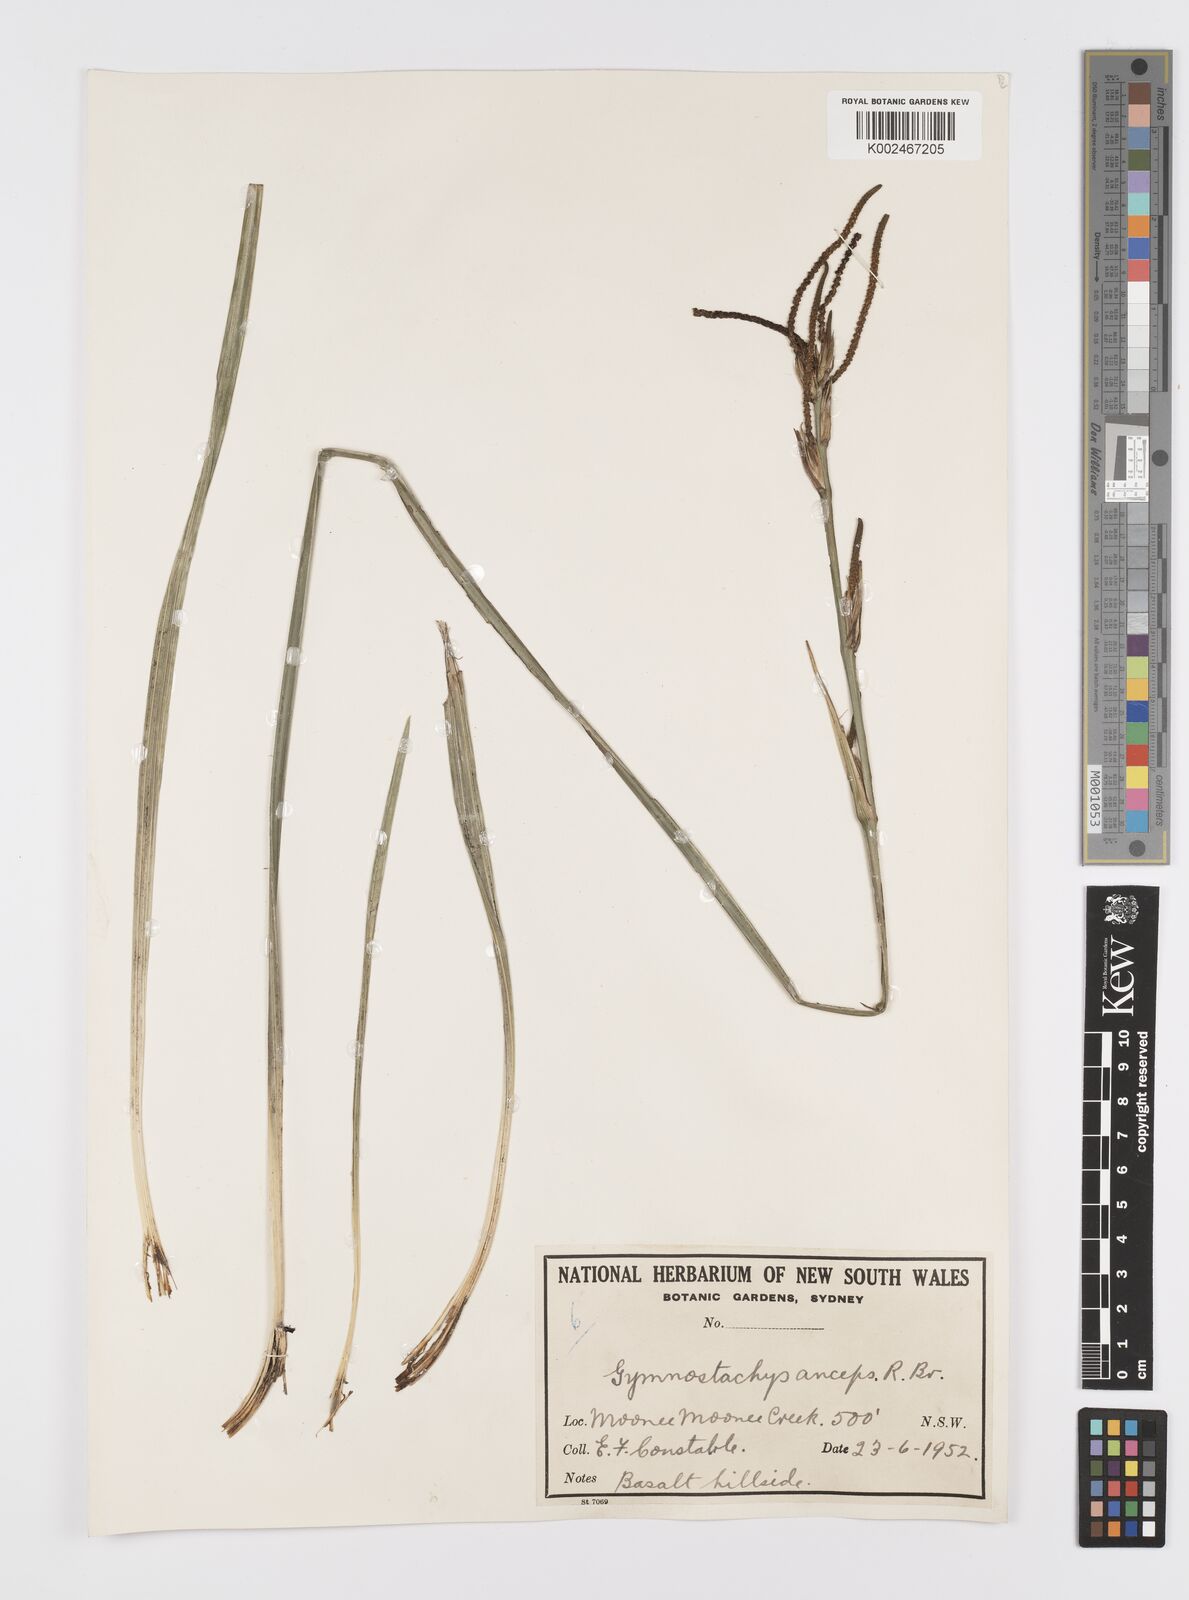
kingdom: Plantae
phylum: Tracheophyta
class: Liliopsida
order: Alismatales
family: Araceae
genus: Gymnostachys
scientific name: Gymnostachys anceps
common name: Settler's-flax
